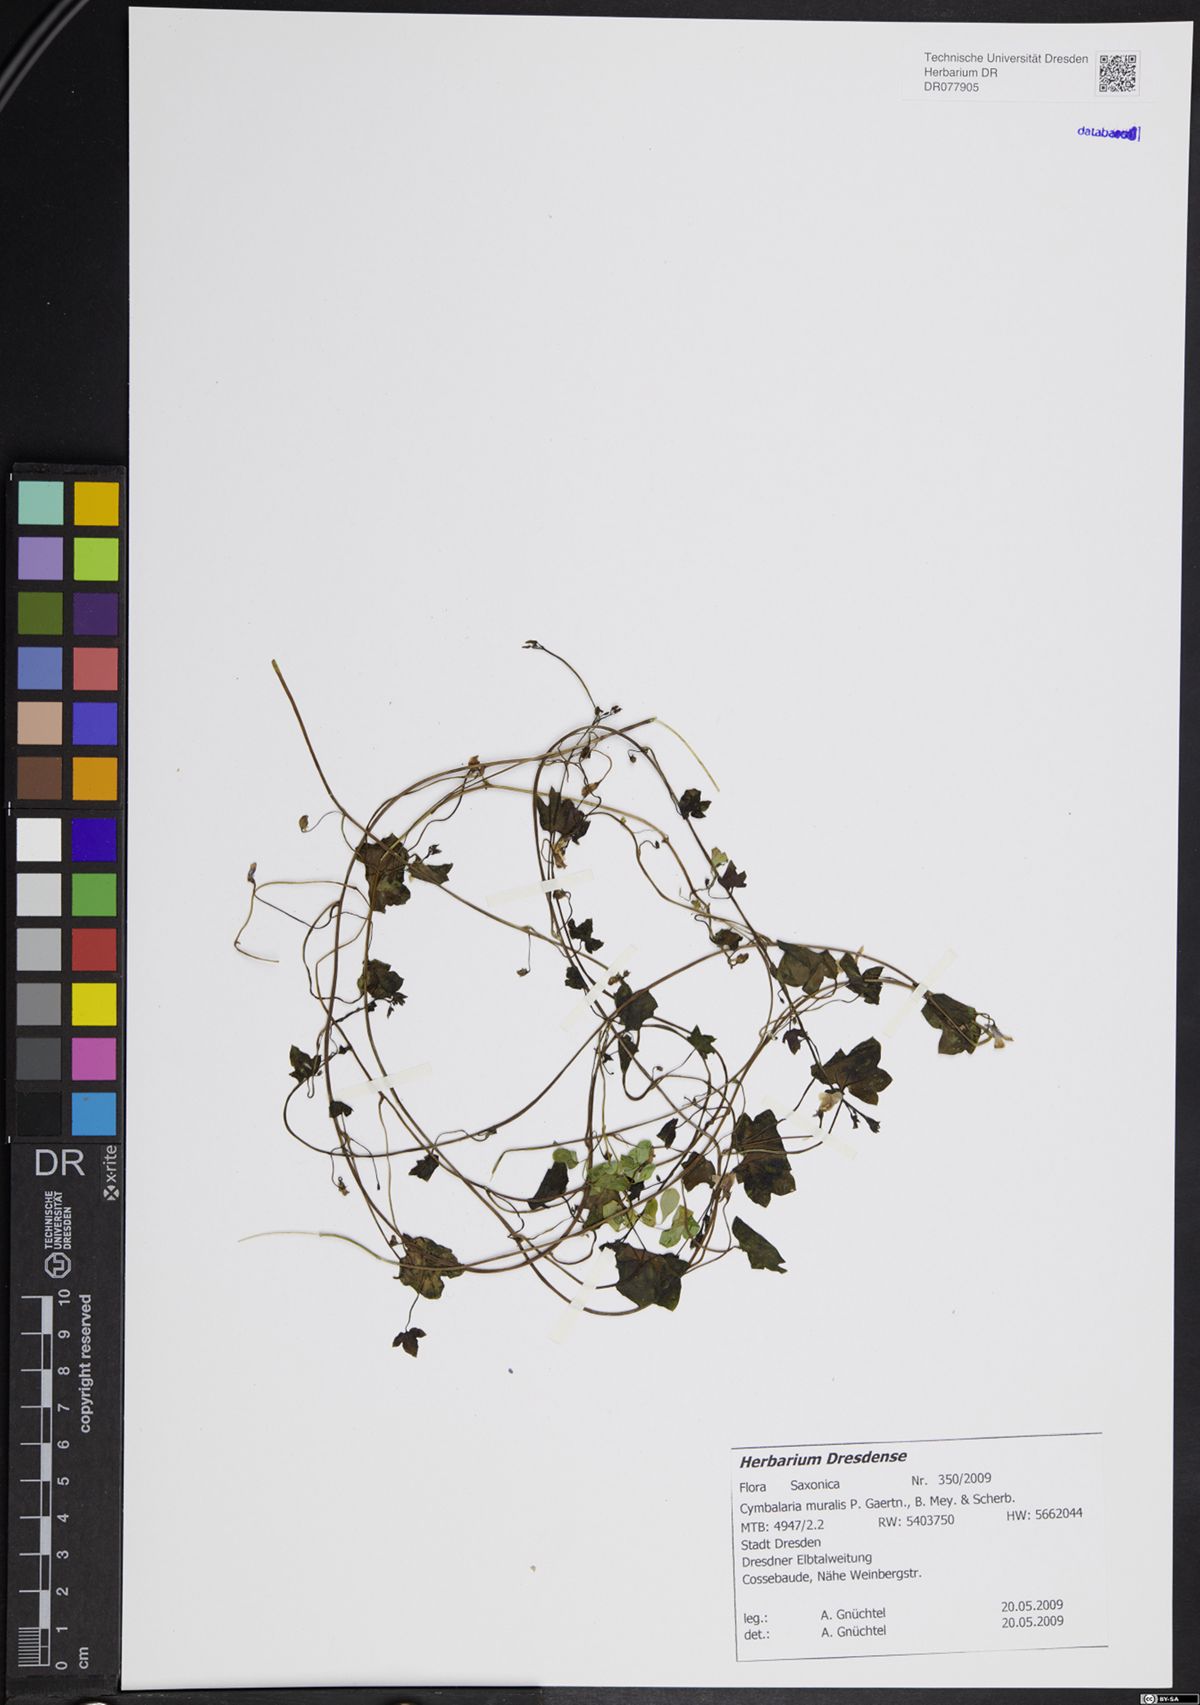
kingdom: Plantae
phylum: Tracheophyta
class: Magnoliopsida
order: Lamiales
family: Plantaginaceae
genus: Cymbalaria
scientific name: Cymbalaria muralis
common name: Ivy-leaved toadflax
